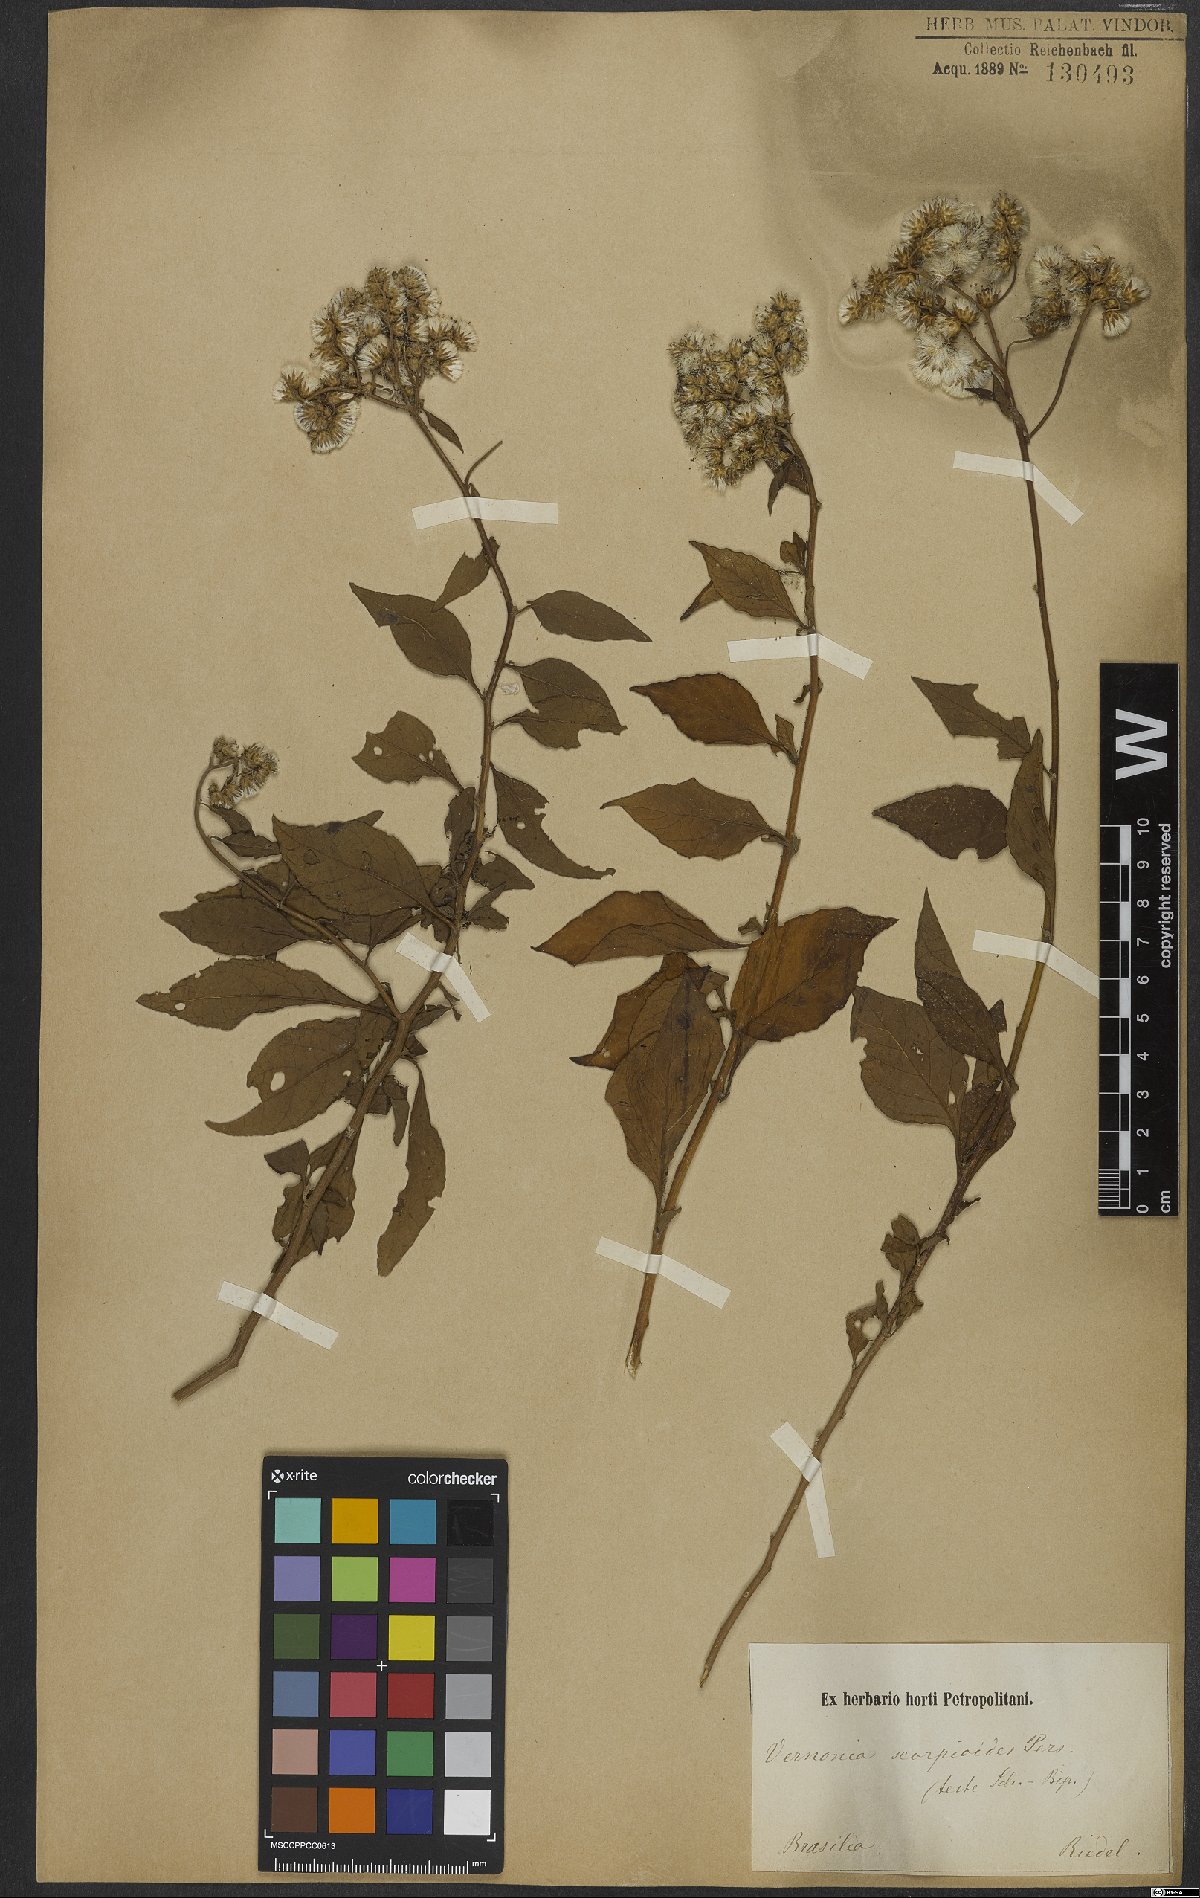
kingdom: Plantae
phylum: Tracheophyta
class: Magnoliopsida
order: Asterales
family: Asteraceae
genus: Cyrtocymura
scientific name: Cyrtocymura scorpioides
